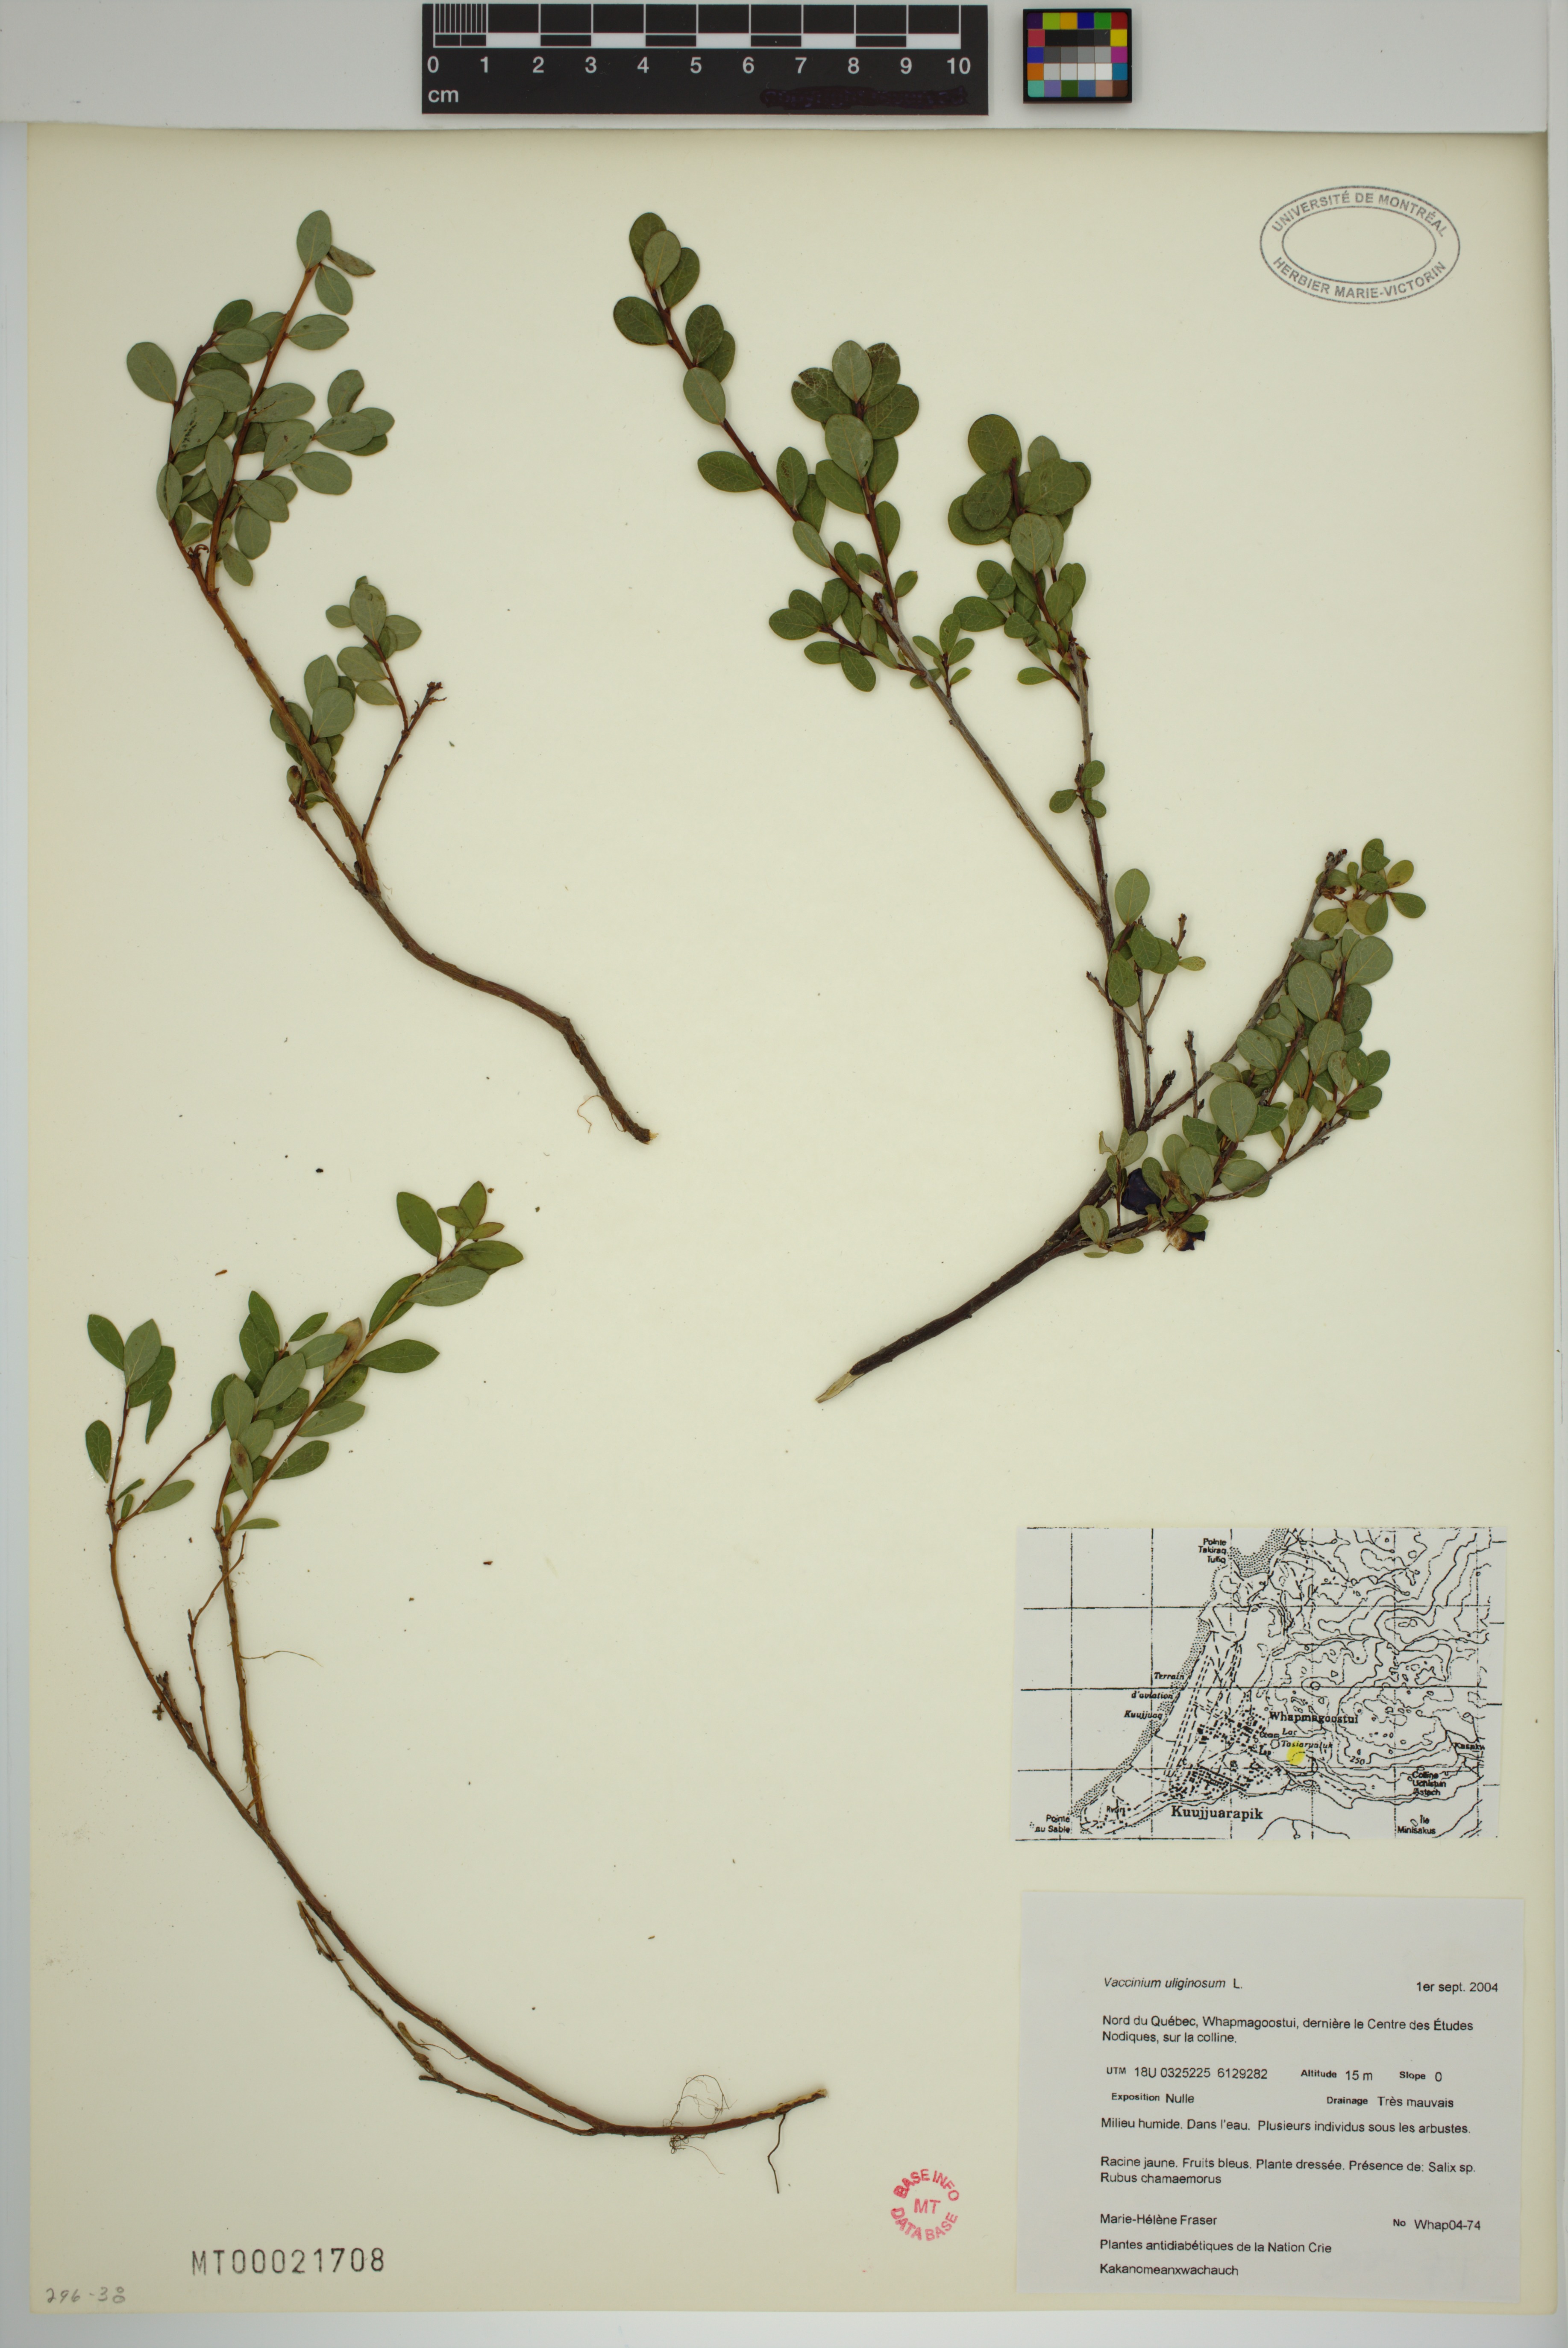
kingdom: Plantae
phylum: Tracheophyta
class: Magnoliopsida
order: Ericales
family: Ericaceae
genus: Vaccinium
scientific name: Vaccinium uliginosum
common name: Bog bilberry
